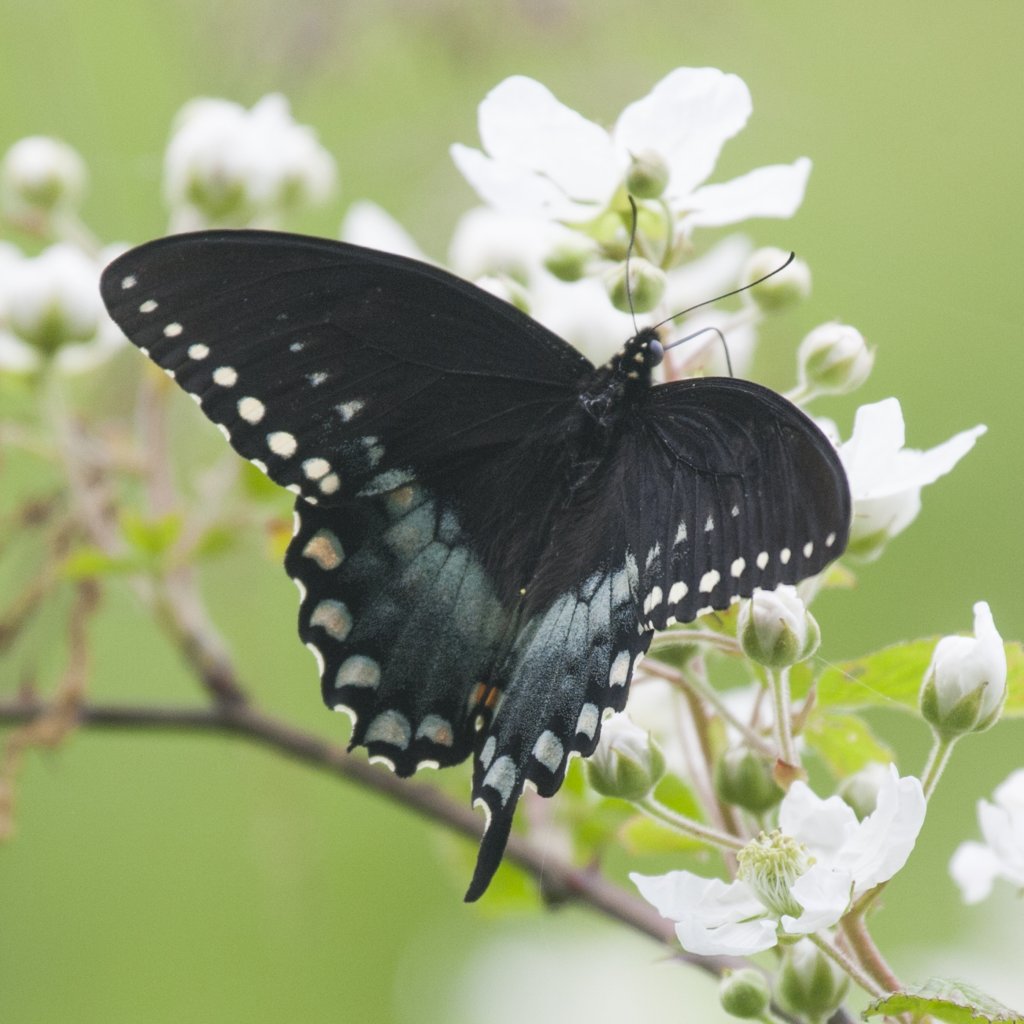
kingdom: Animalia
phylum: Arthropoda
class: Insecta
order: Lepidoptera
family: Papilionidae
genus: Pterourus
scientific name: Pterourus troilus
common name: Spicebush Swallowtail
